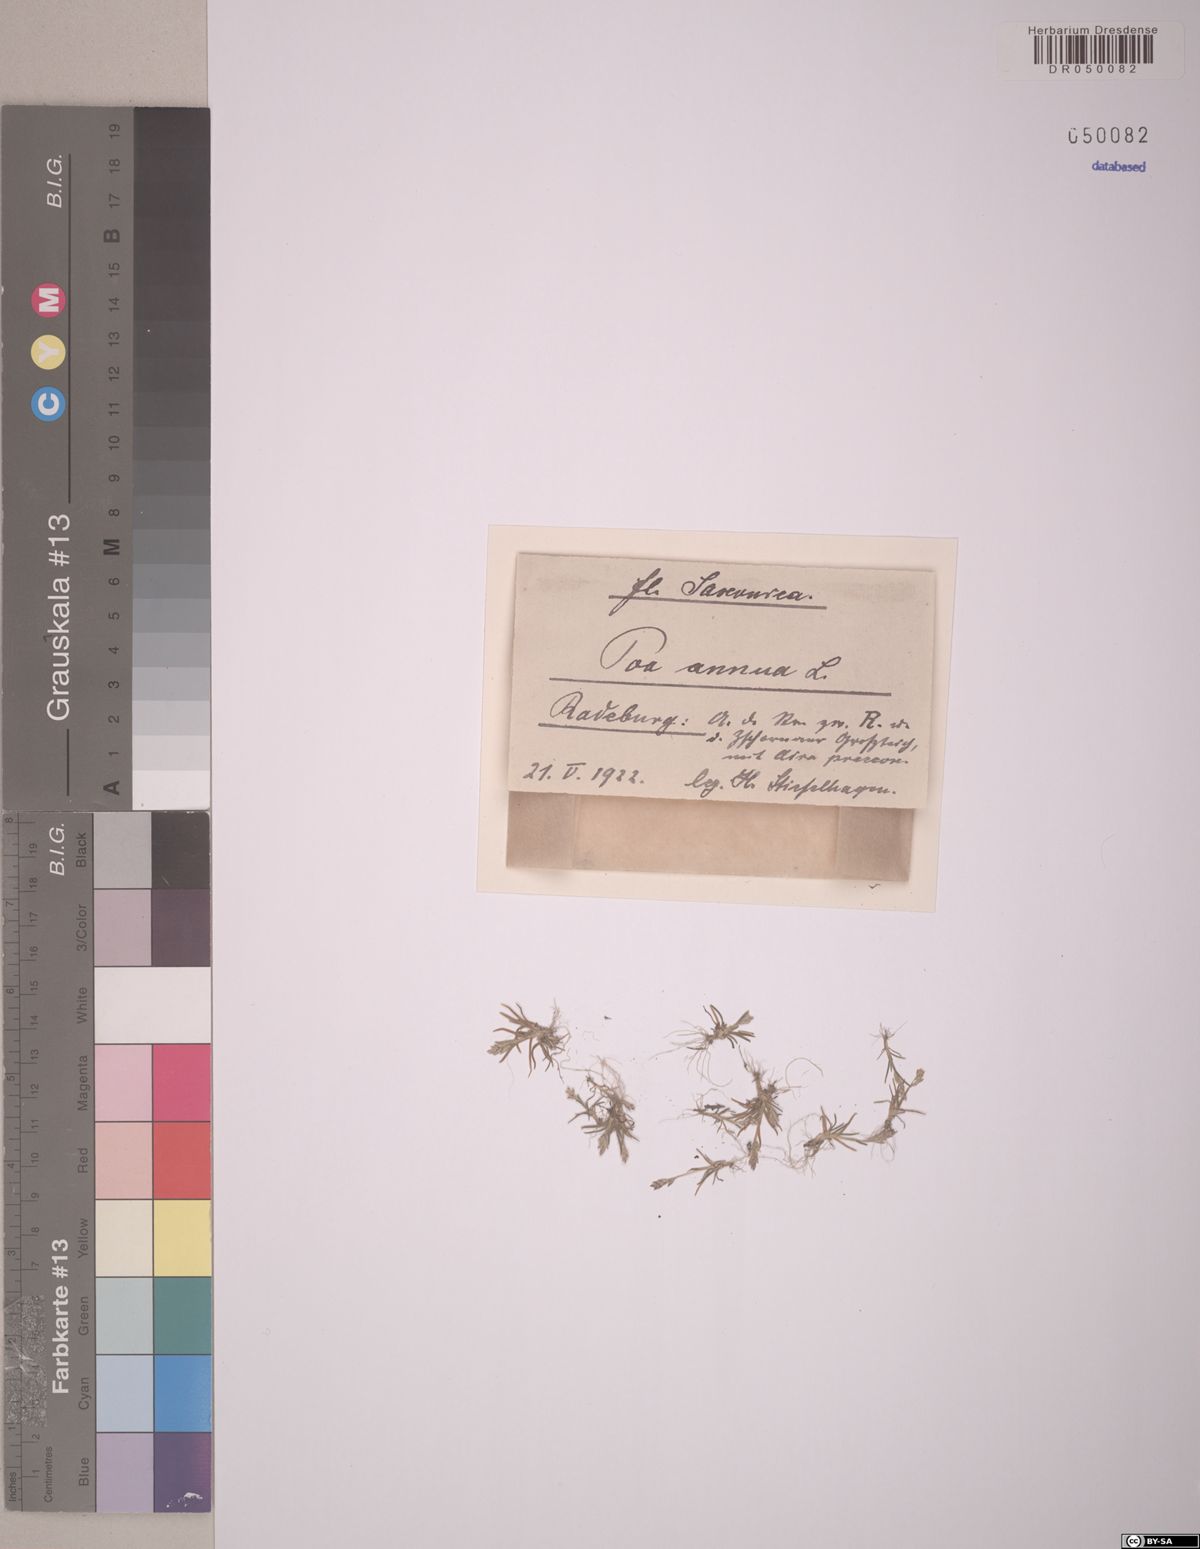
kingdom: Plantae
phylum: Tracheophyta
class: Liliopsida
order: Poales
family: Poaceae
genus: Poa
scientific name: Poa annua
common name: Annual bluegrass
